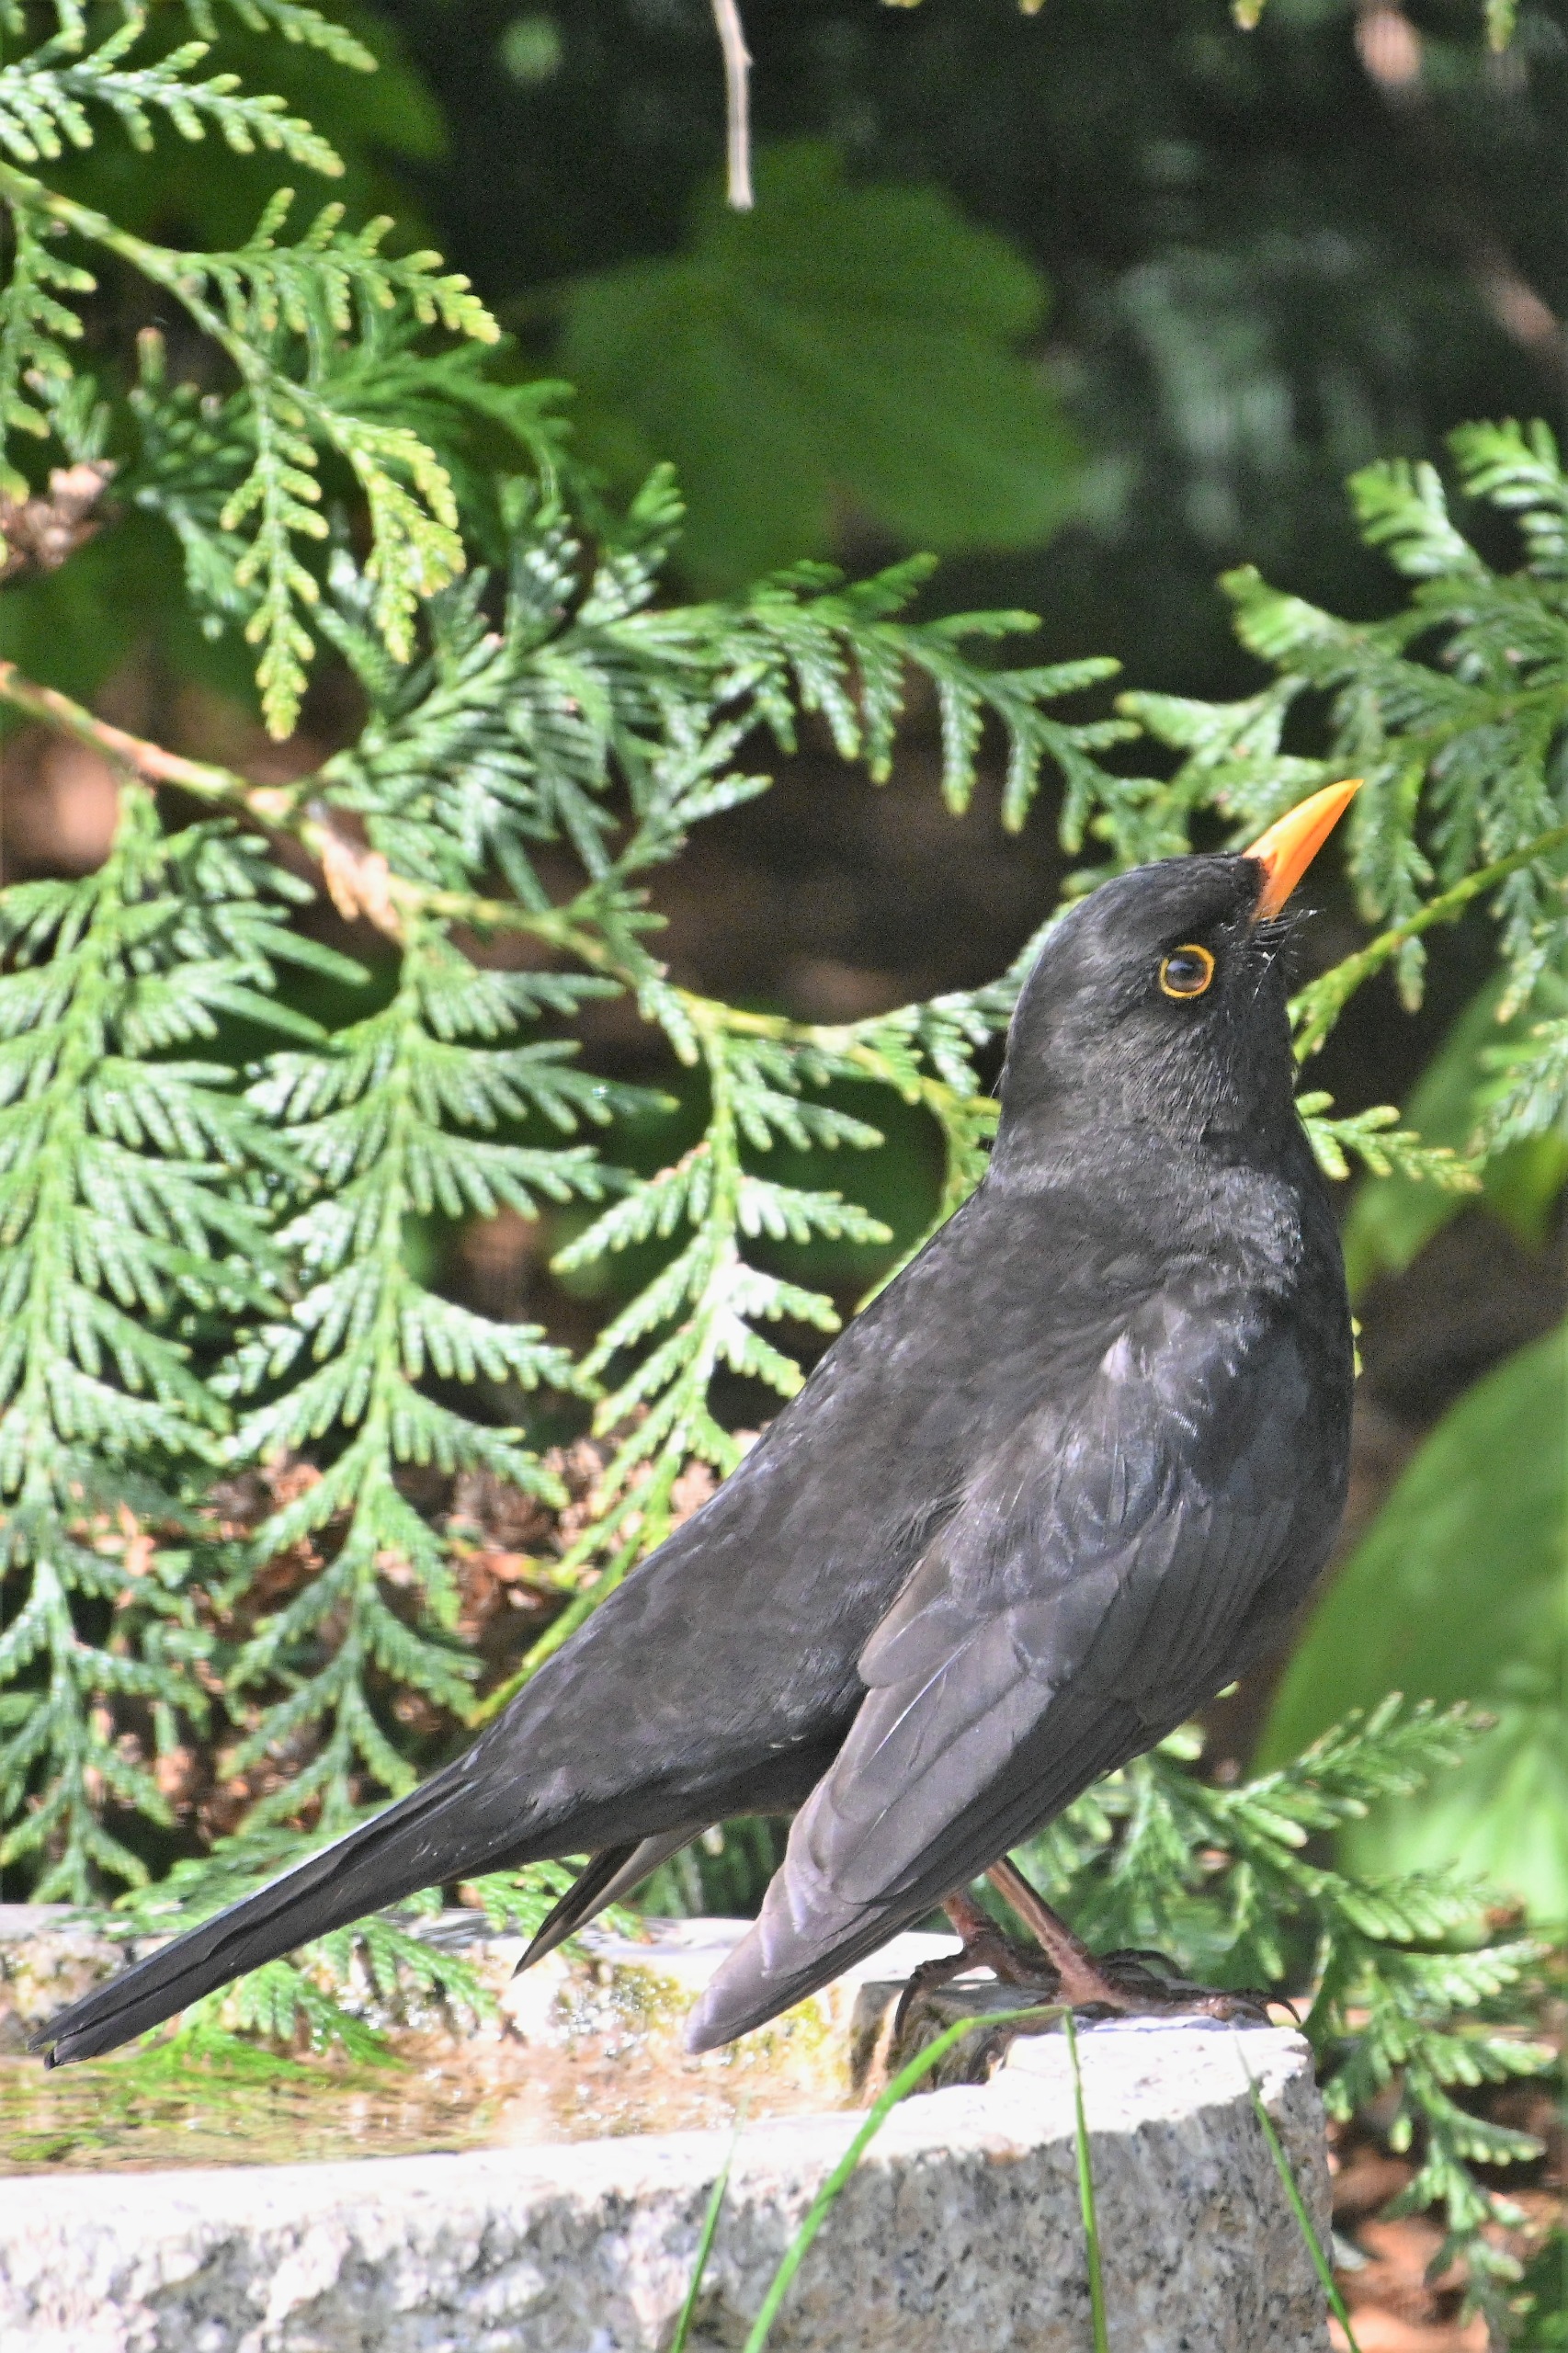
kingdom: Animalia
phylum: Chordata
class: Aves
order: Passeriformes
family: Turdidae
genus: Turdus
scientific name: Turdus merula
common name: Solsort
